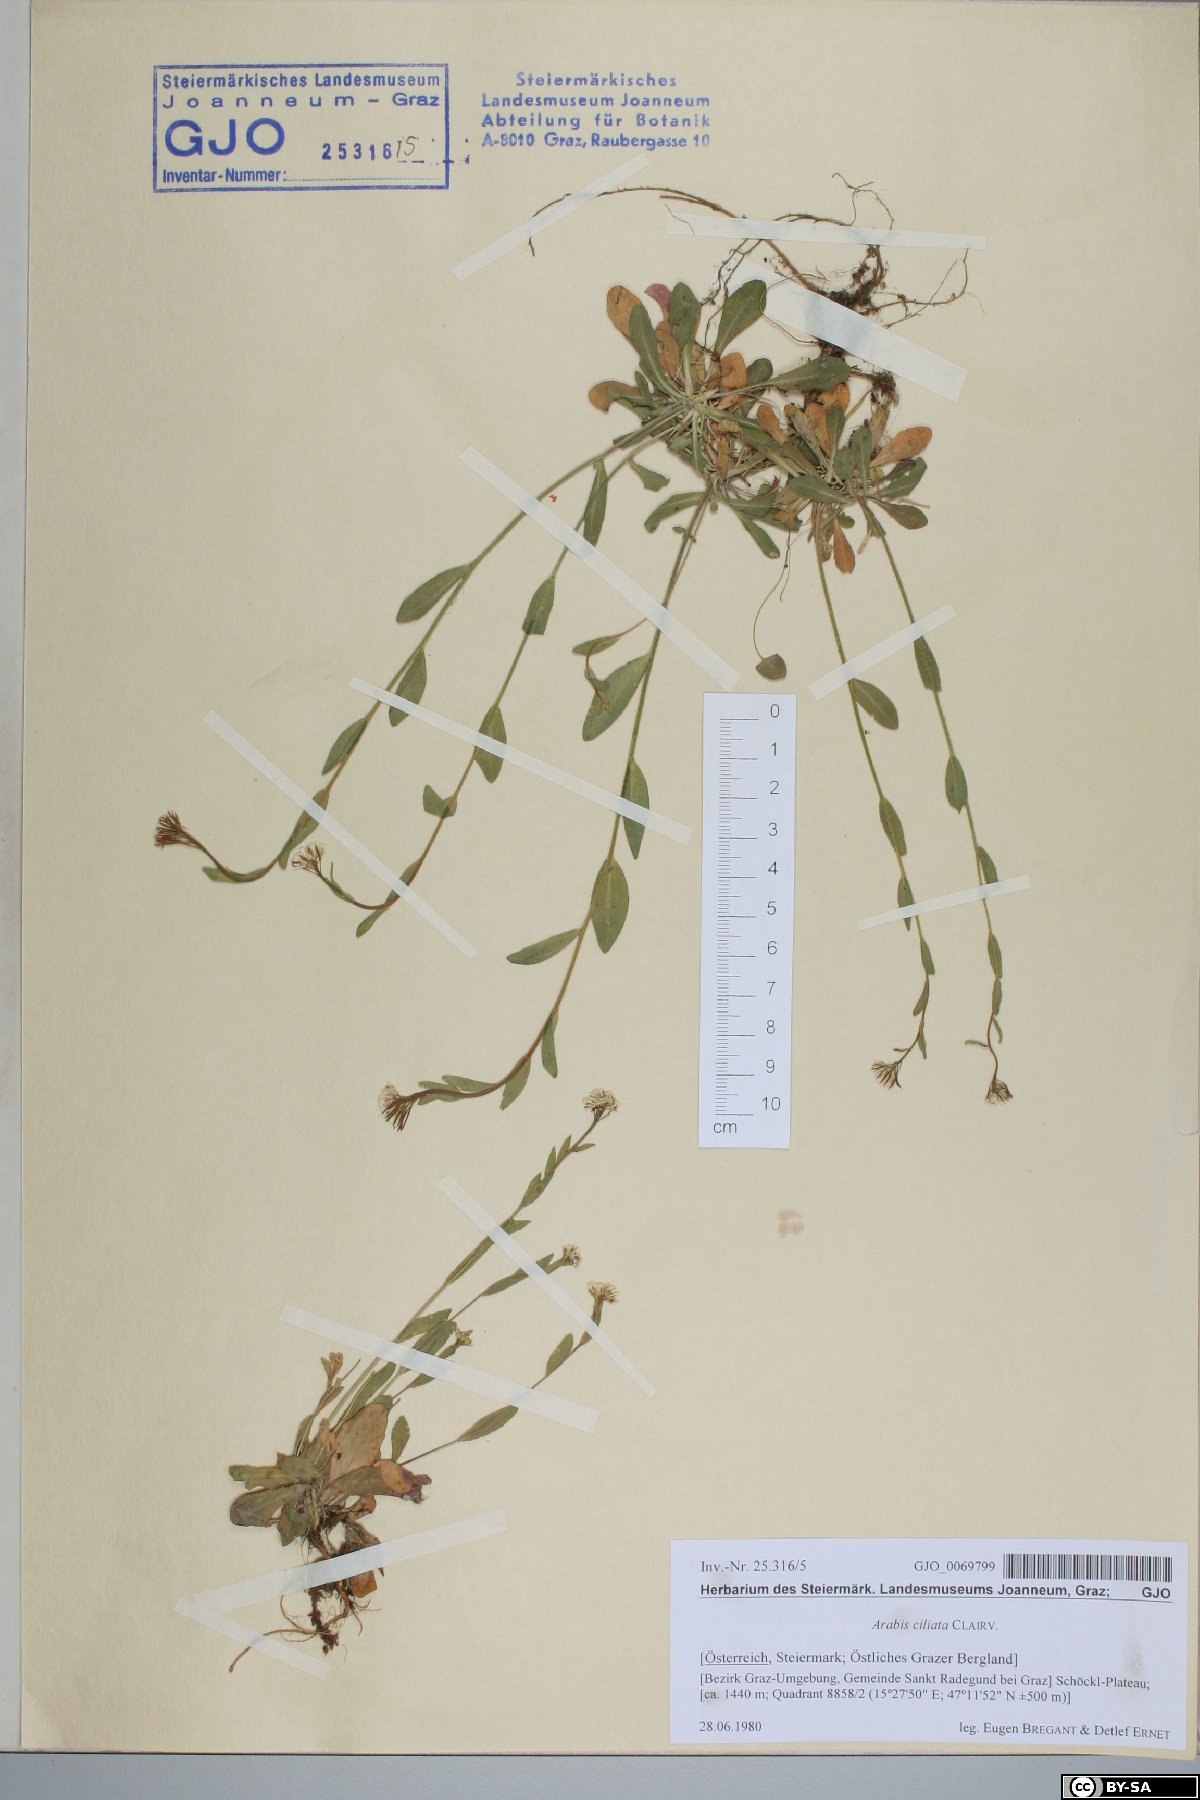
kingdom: Plantae
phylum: Tracheophyta
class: Magnoliopsida
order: Brassicales
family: Brassicaceae
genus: Arabis
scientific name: Arabis ciliata
